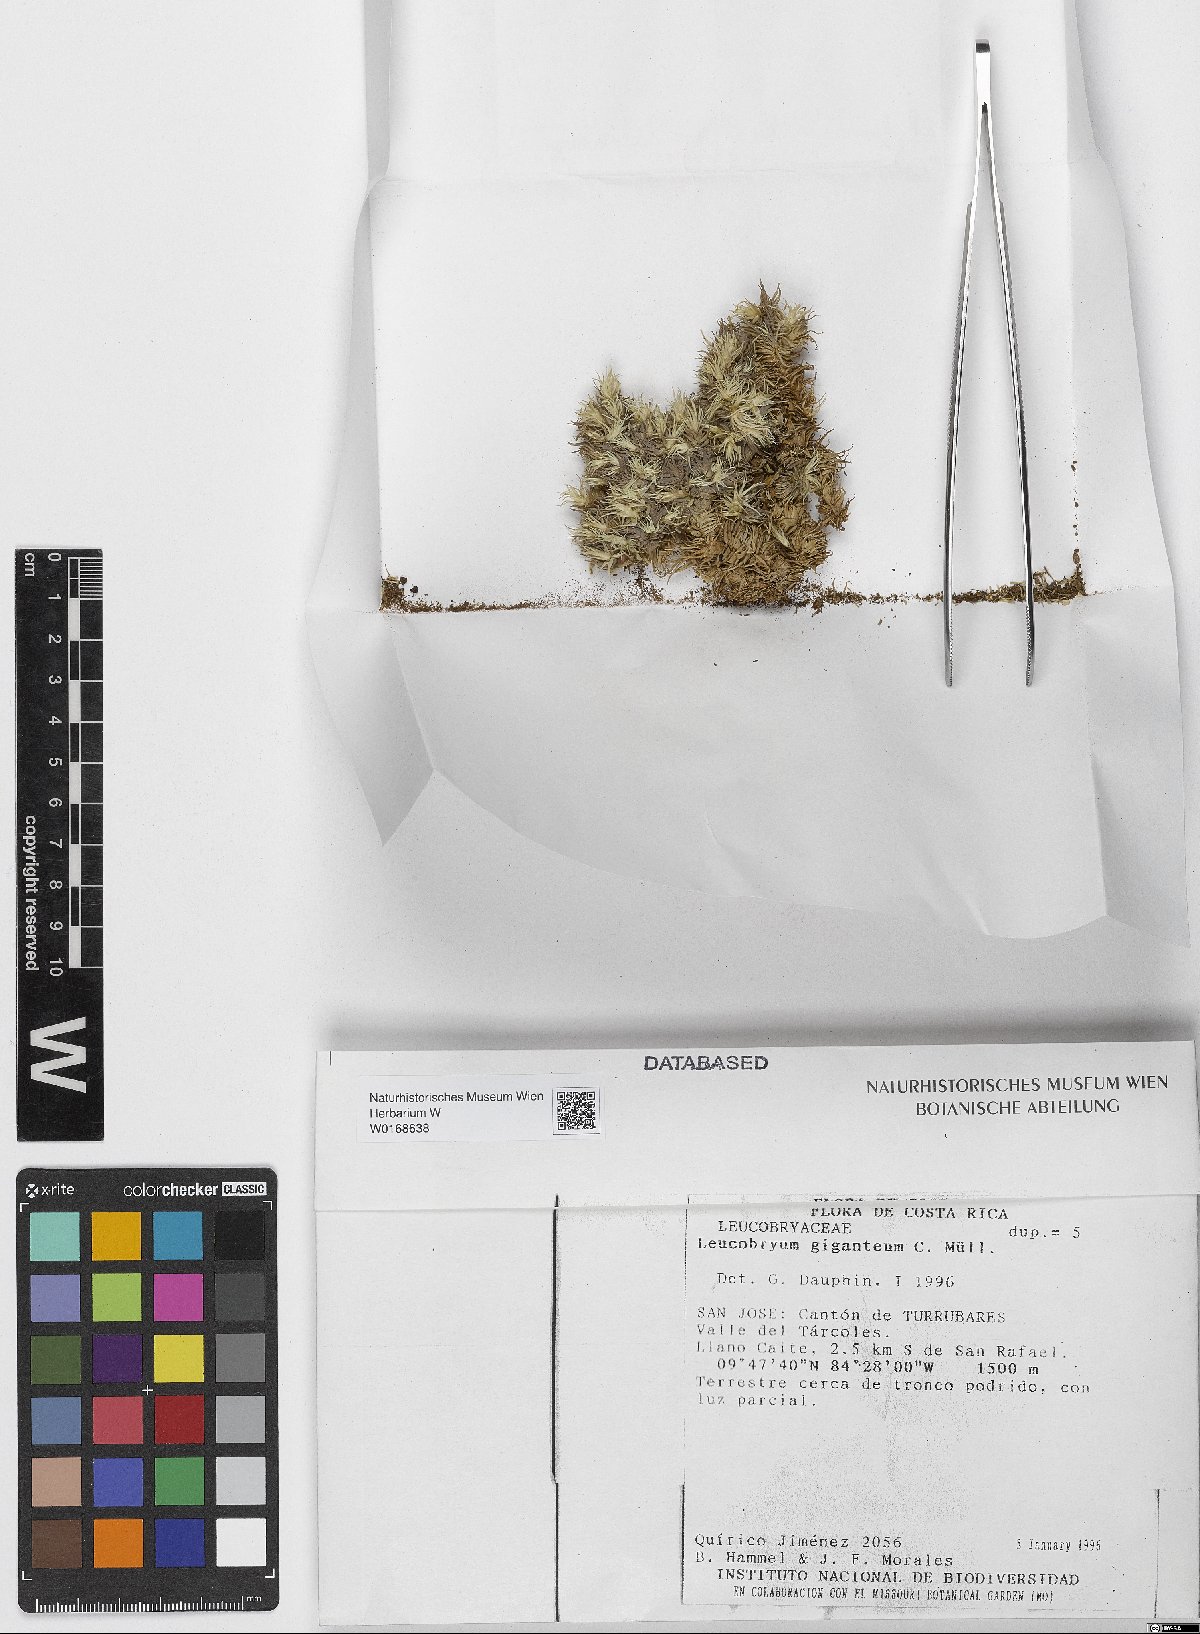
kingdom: Plantae
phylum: Bryophyta
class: Bryopsida
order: Dicranales
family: Leucobryaceae
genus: Leucobryum
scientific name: Leucobryum giganteum
